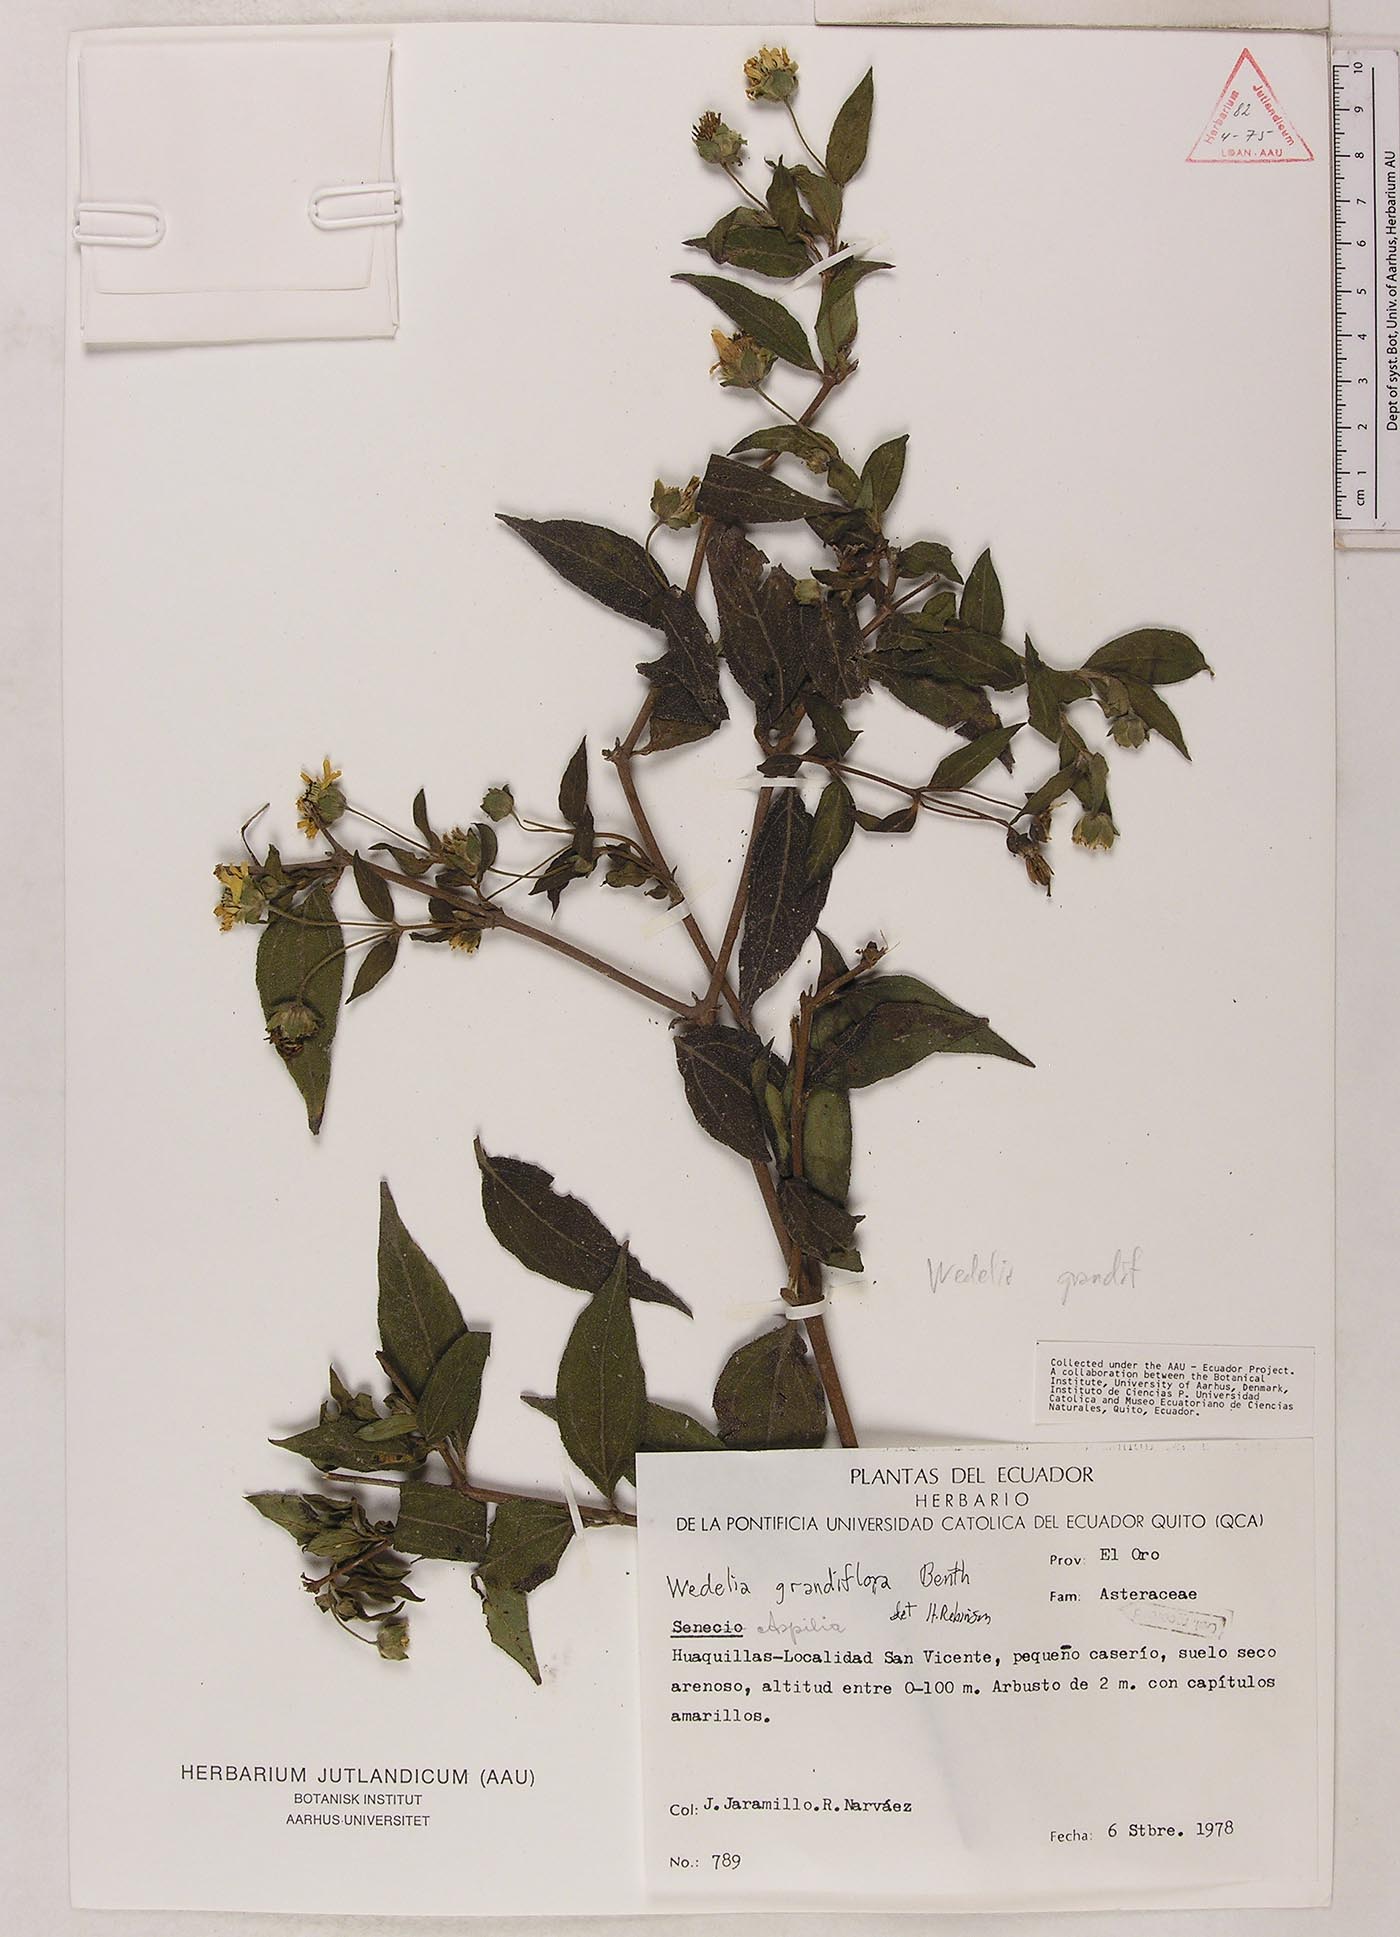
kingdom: Plantae
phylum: Tracheophyta
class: Magnoliopsida
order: Asterales
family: Asteraceae
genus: Wedelia
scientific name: Wedelia grandiflora
